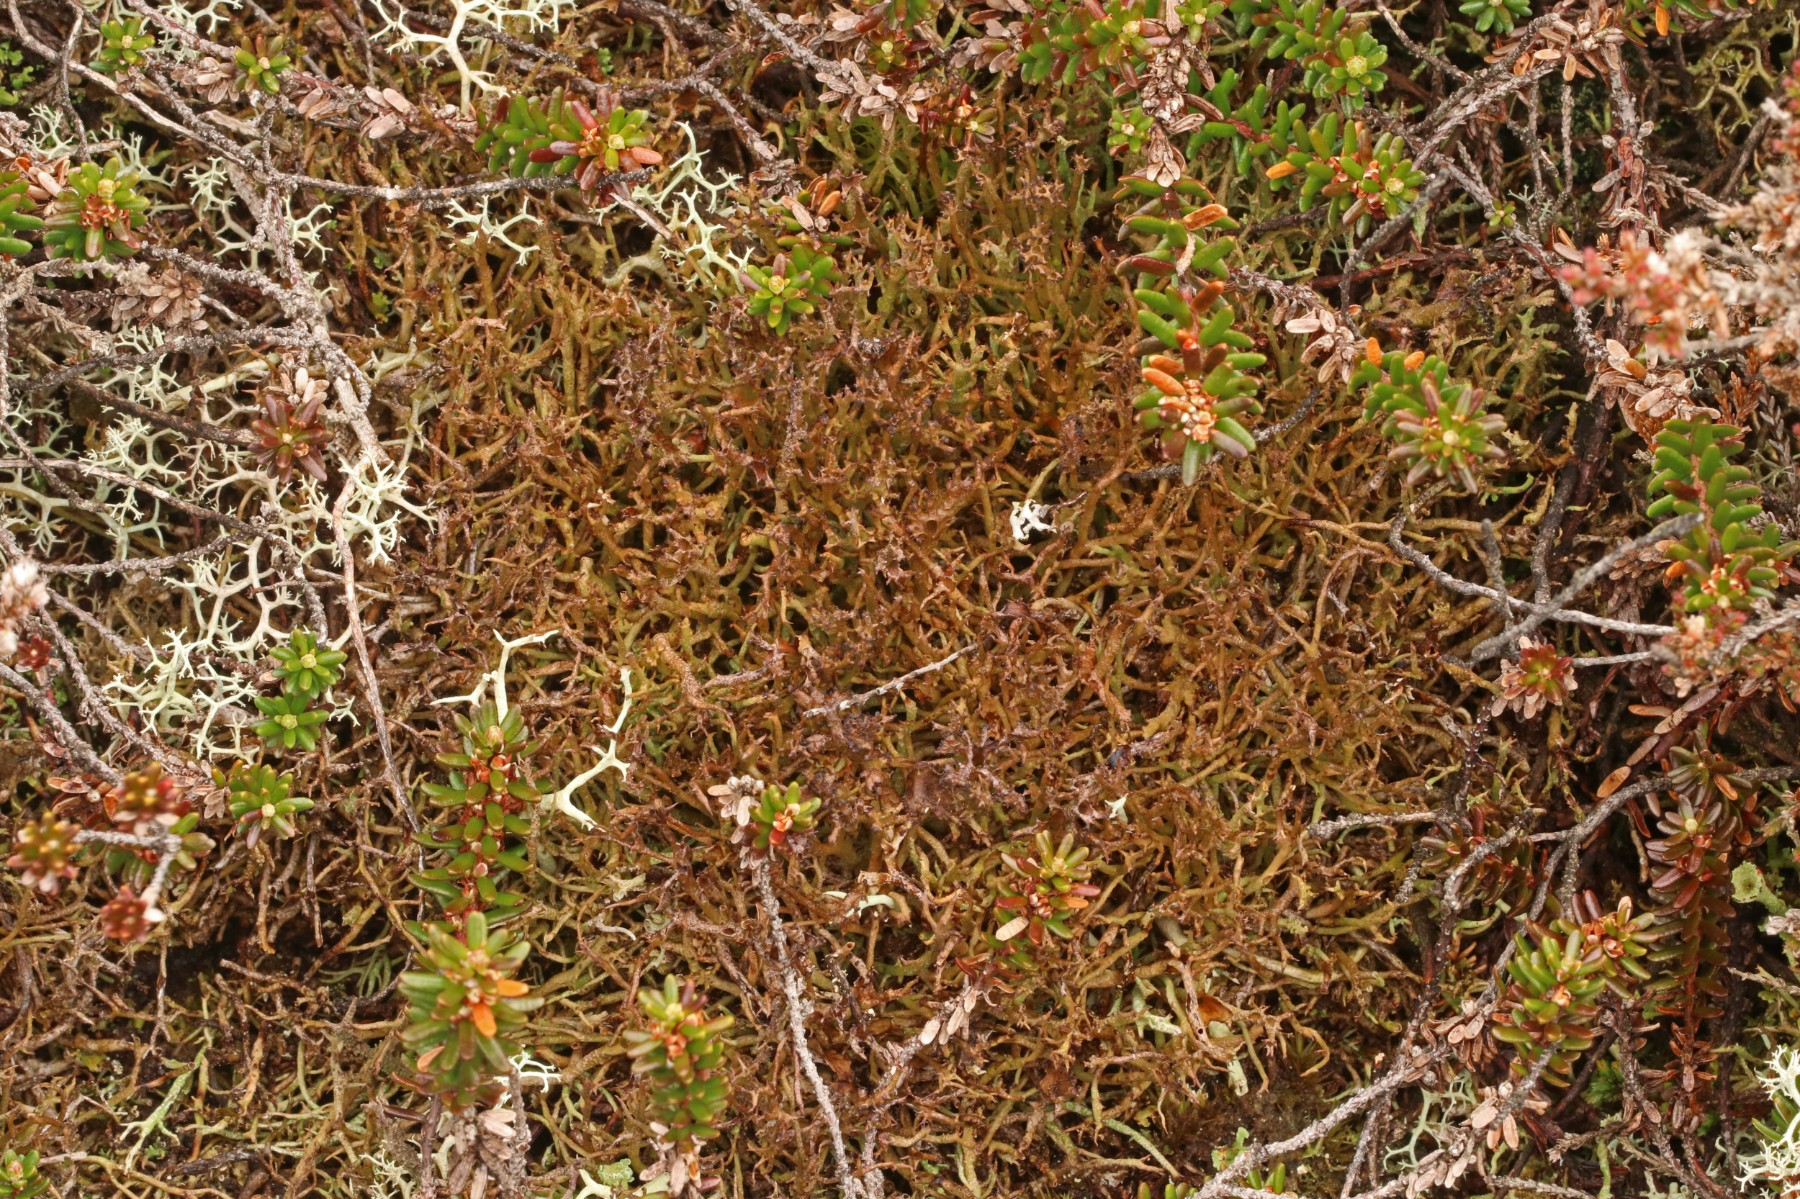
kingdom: Fungi
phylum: Ascomycota
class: Lecanoromycetes
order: Lecanorales
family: Cladoniaceae
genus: Cladonia
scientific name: Cladonia crispata
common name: takket bægerlav
